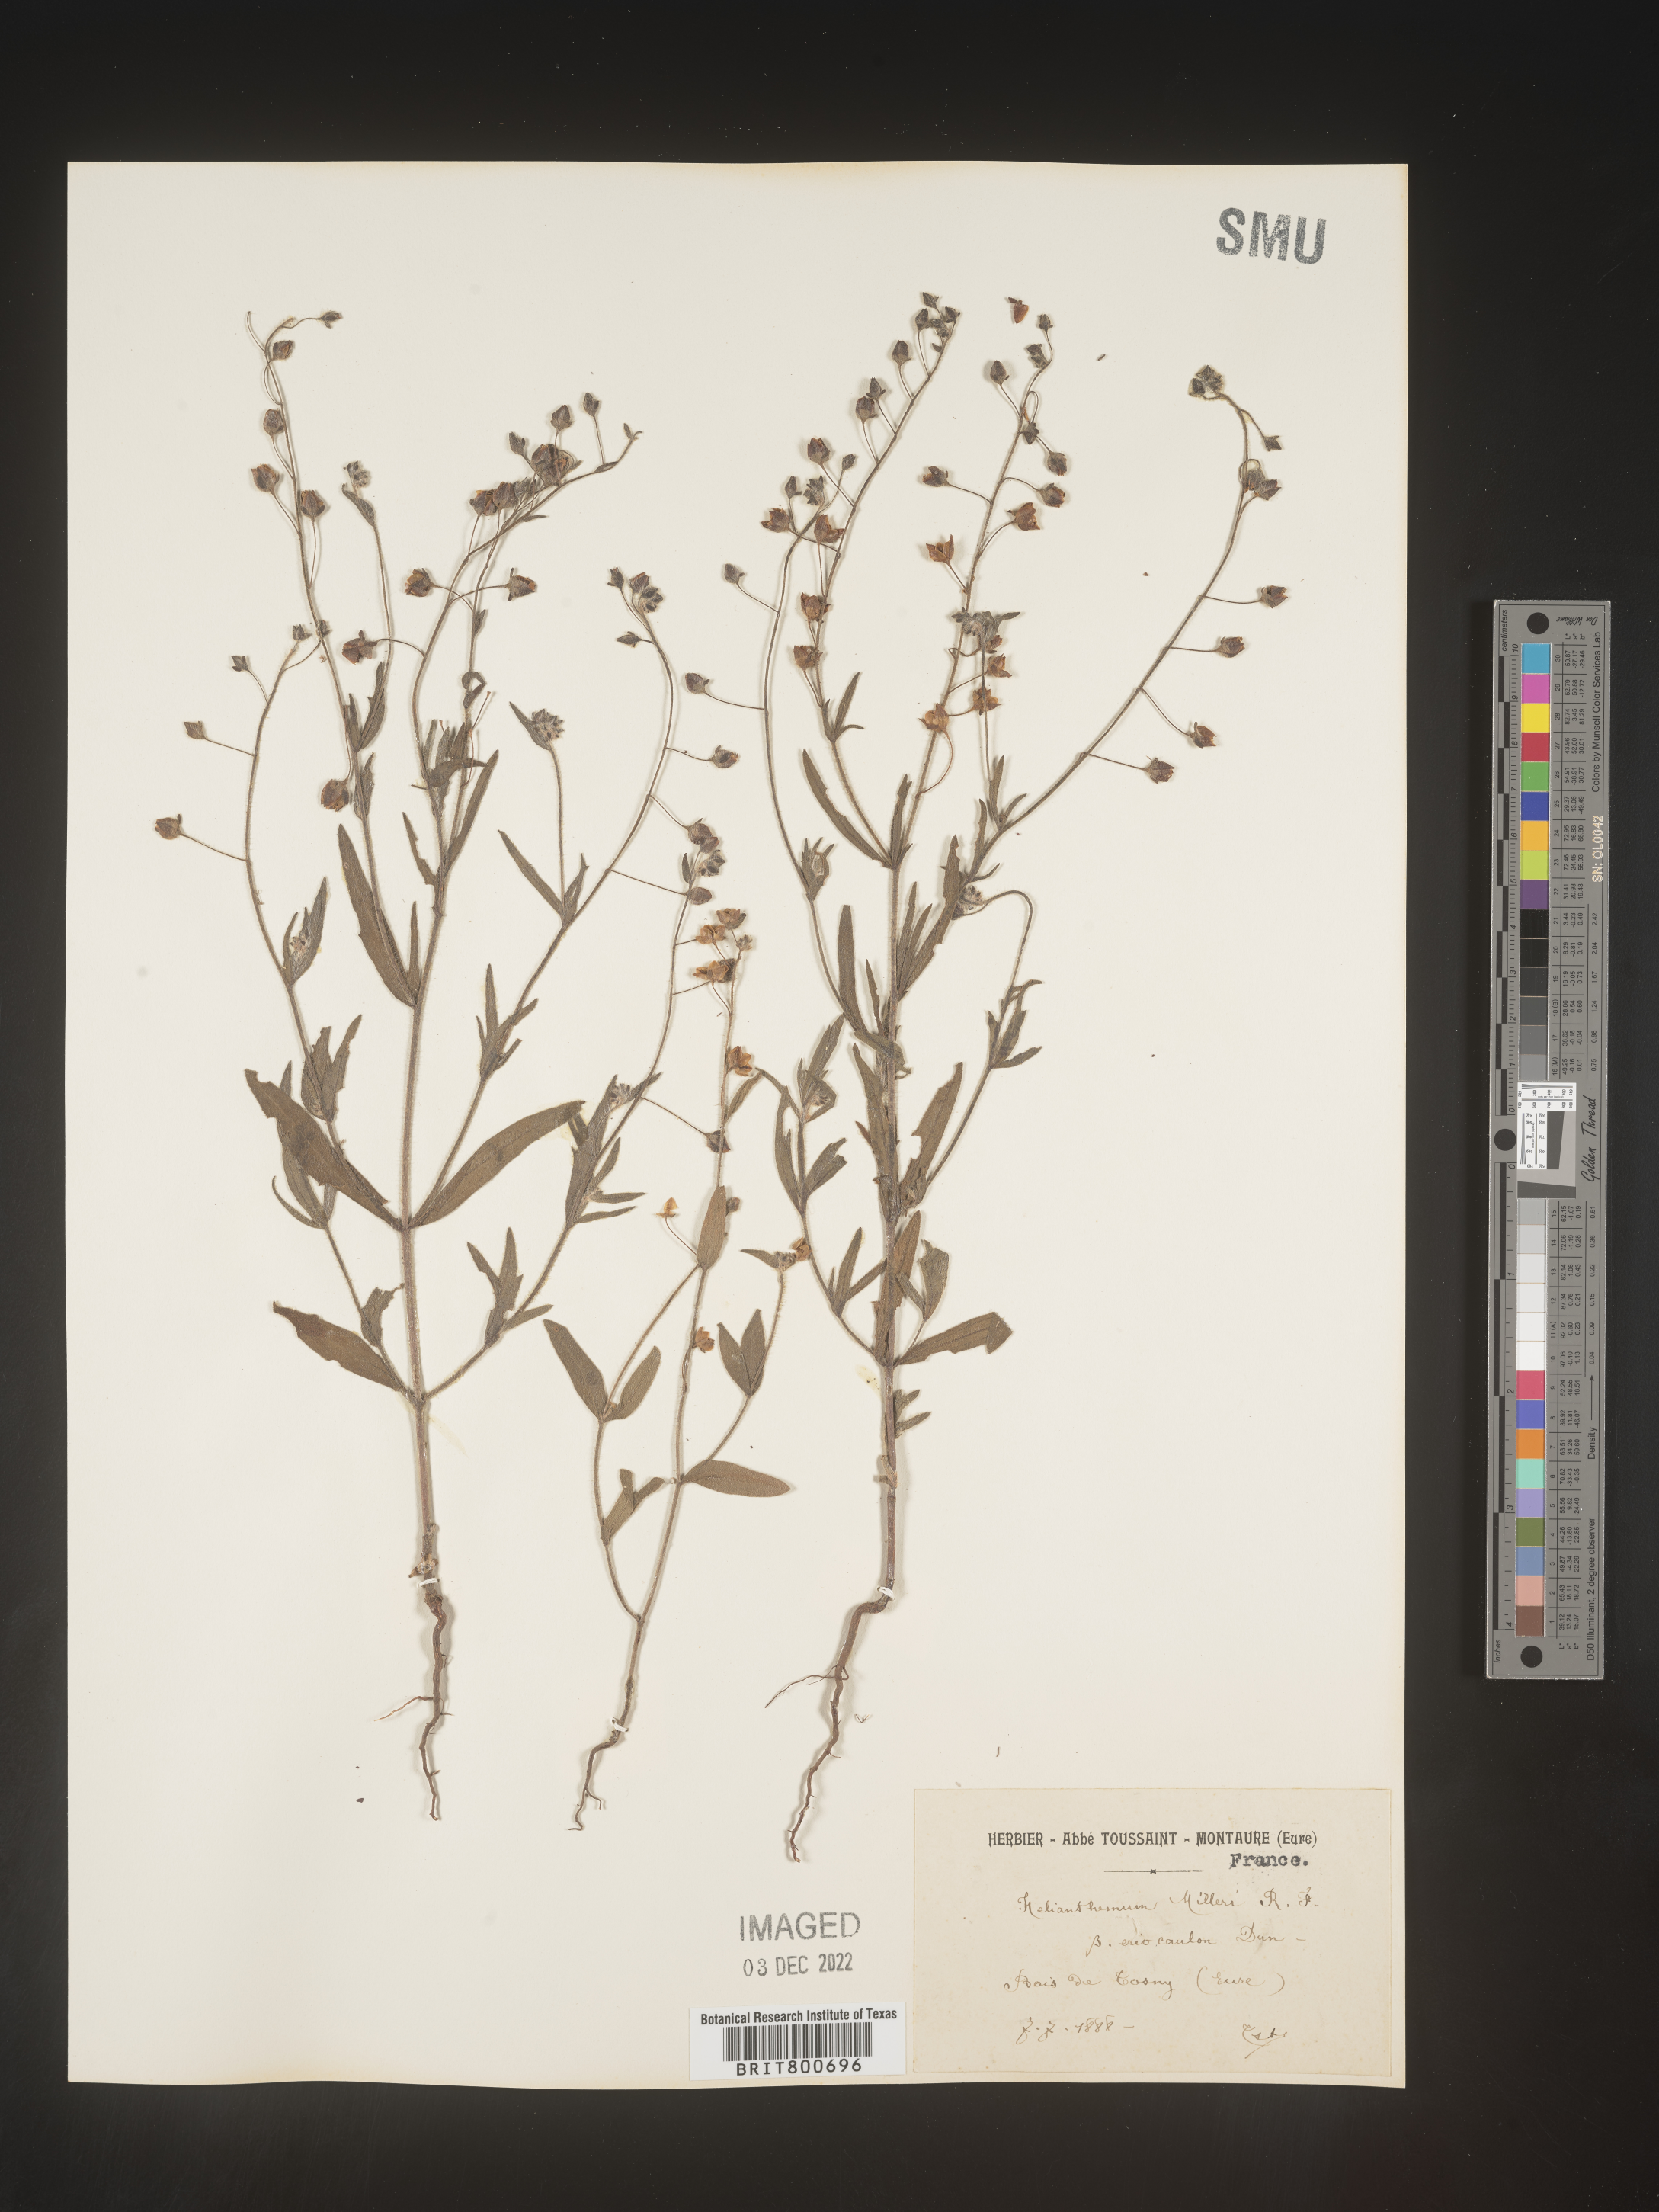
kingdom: Plantae
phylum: Tracheophyta
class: Magnoliopsida
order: Malvales
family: Cistaceae
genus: Helianthemum
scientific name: Helianthemum
